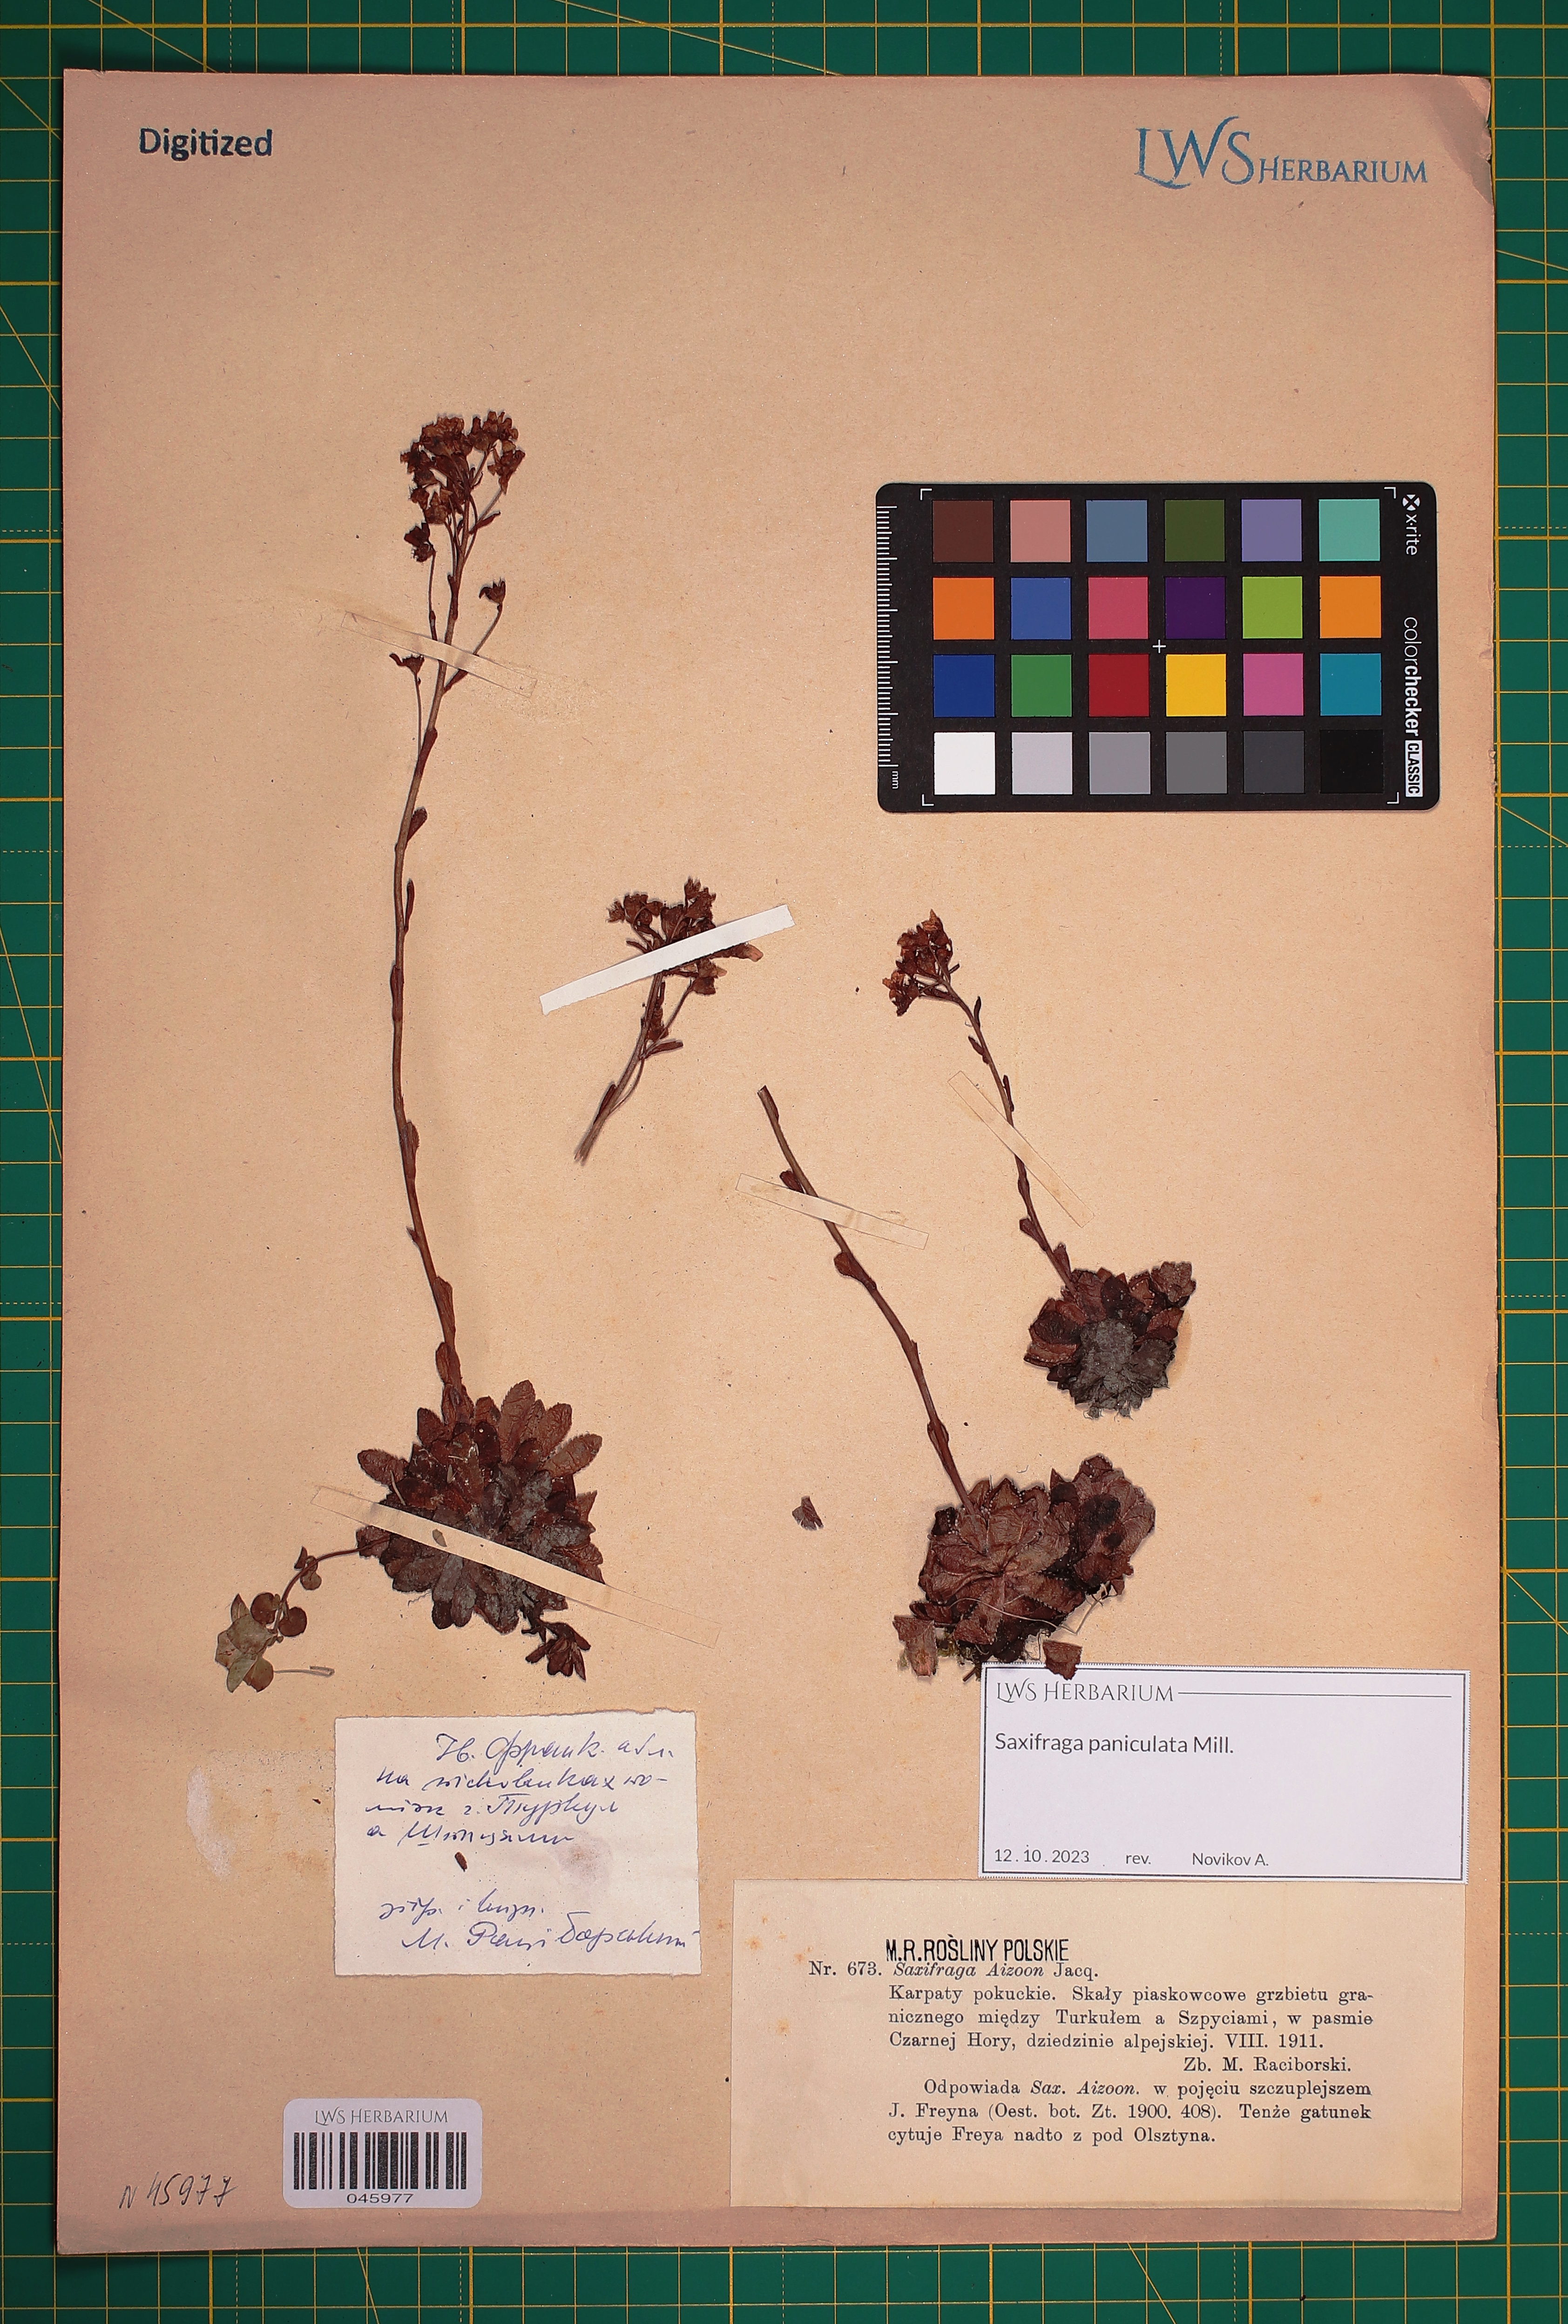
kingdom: Plantae
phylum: Tracheophyta
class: Magnoliopsida
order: Saxifragales
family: Saxifragaceae
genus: Saxifraga
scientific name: Saxifraga paniculata
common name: Livelong saxifrage
